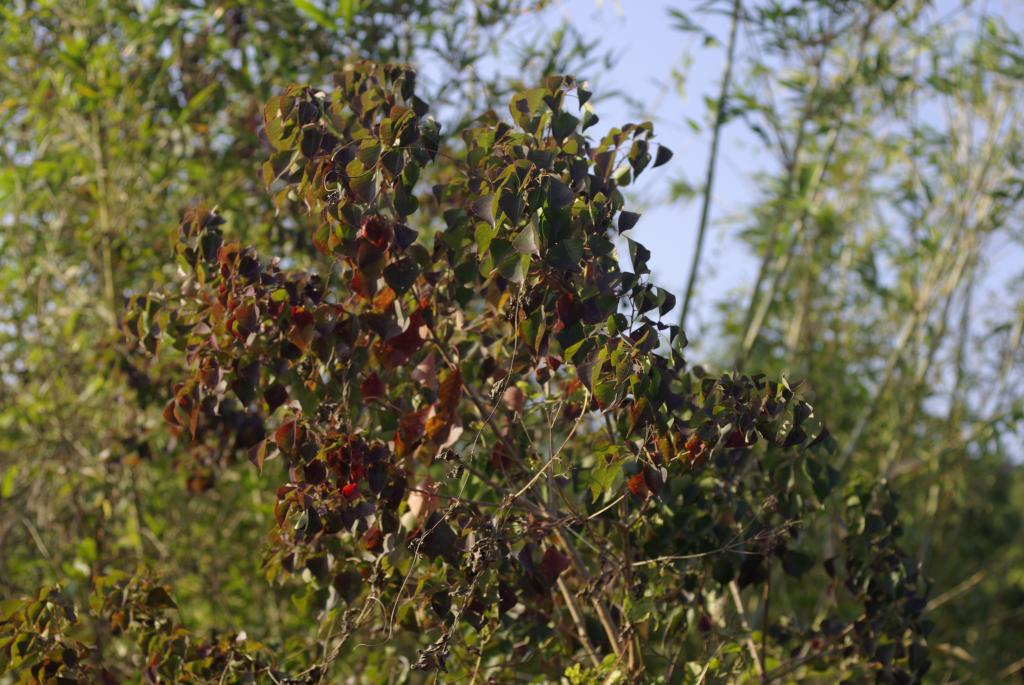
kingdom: Plantae
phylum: Tracheophyta
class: Magnoliopsida
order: Malpighiales
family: Euphorbiaceae
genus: Triadica
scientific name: Triadica sebifera
